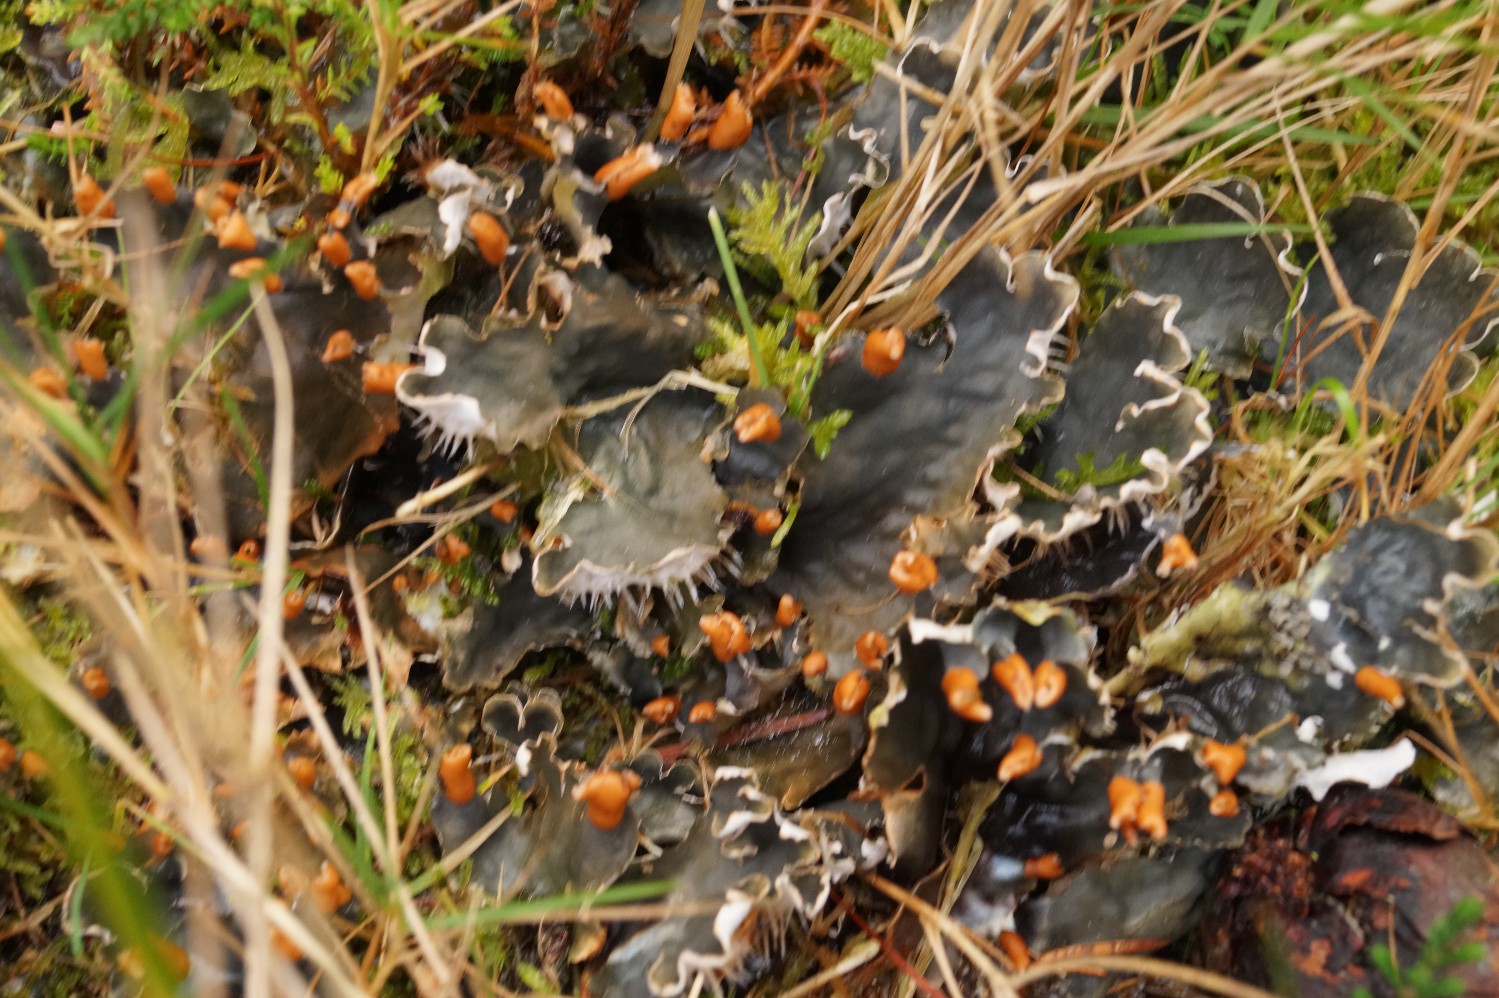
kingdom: Fungi
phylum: Ascomycota
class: Lecanoromycetes
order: Peltigerales
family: Peltigeraceae
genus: Peltigera
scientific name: Peltigera hymenina
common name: hinde-skjoldlav
